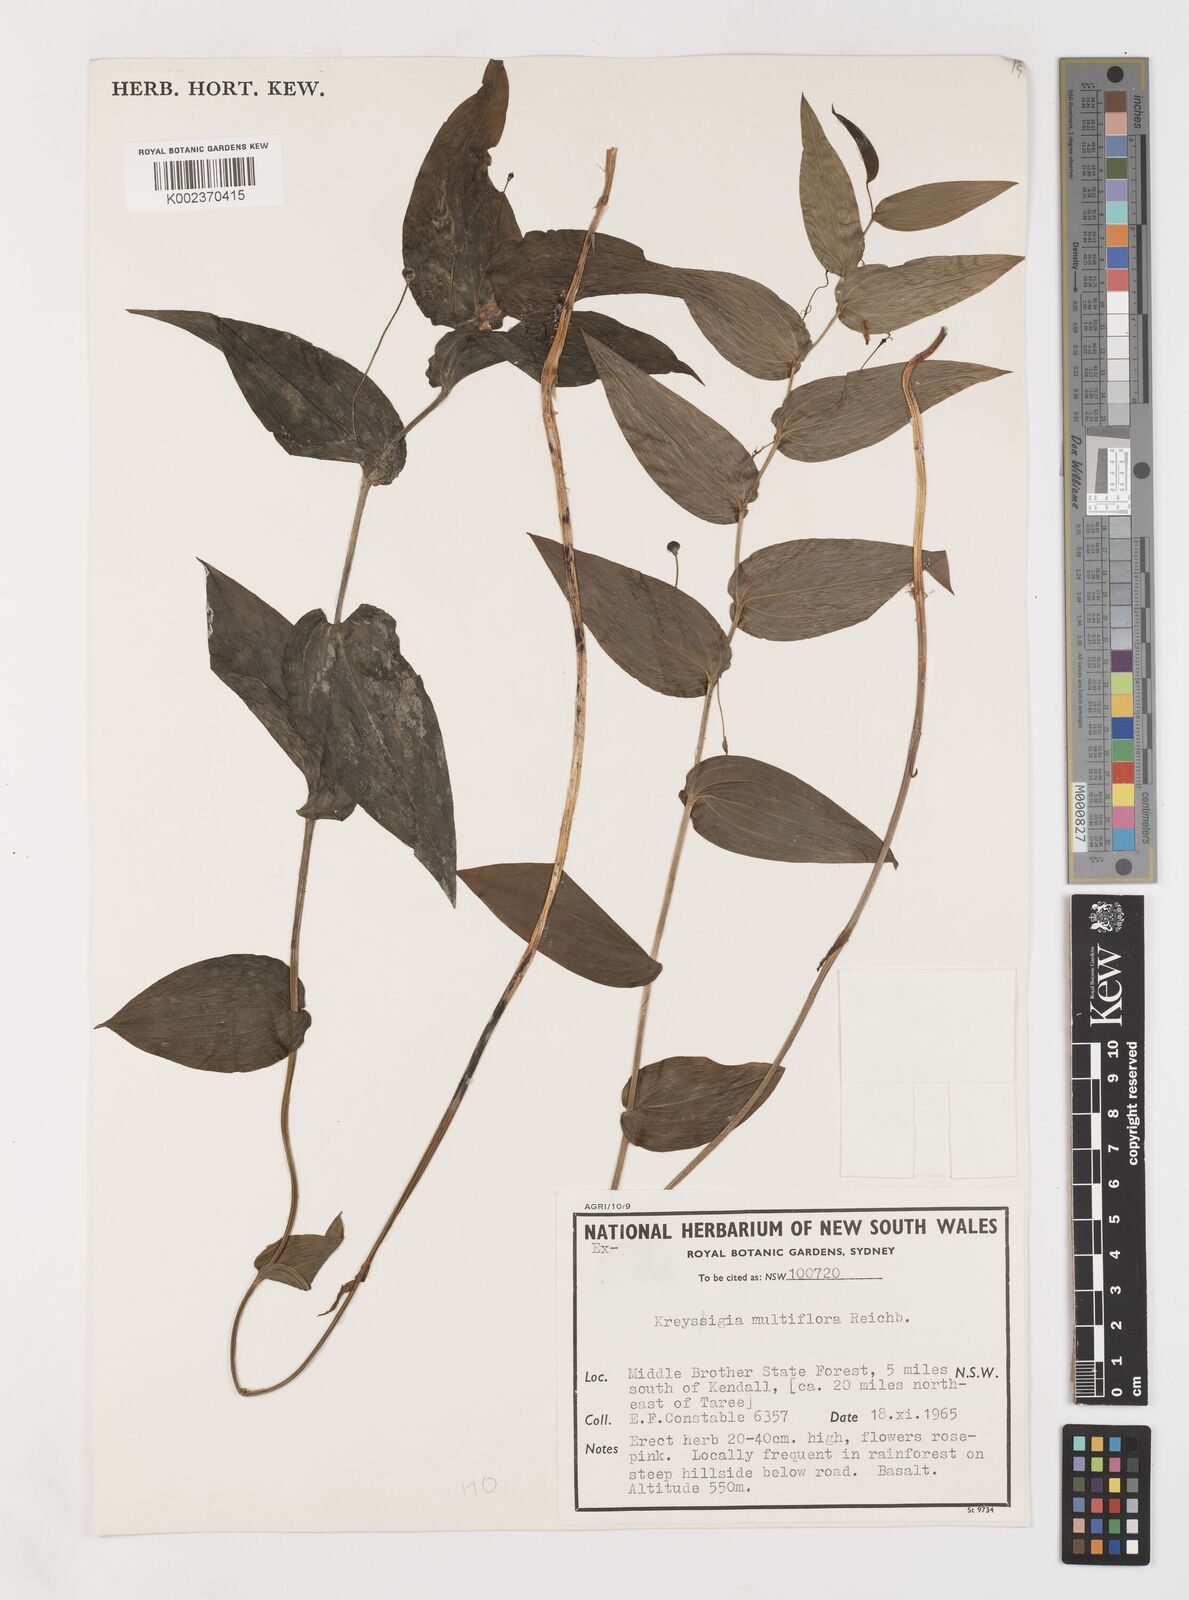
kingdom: Plantae
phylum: Tracheophyta
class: Liliopsida
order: Liliales
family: Colchicaceae
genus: Tripladenia
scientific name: Tripladenia
